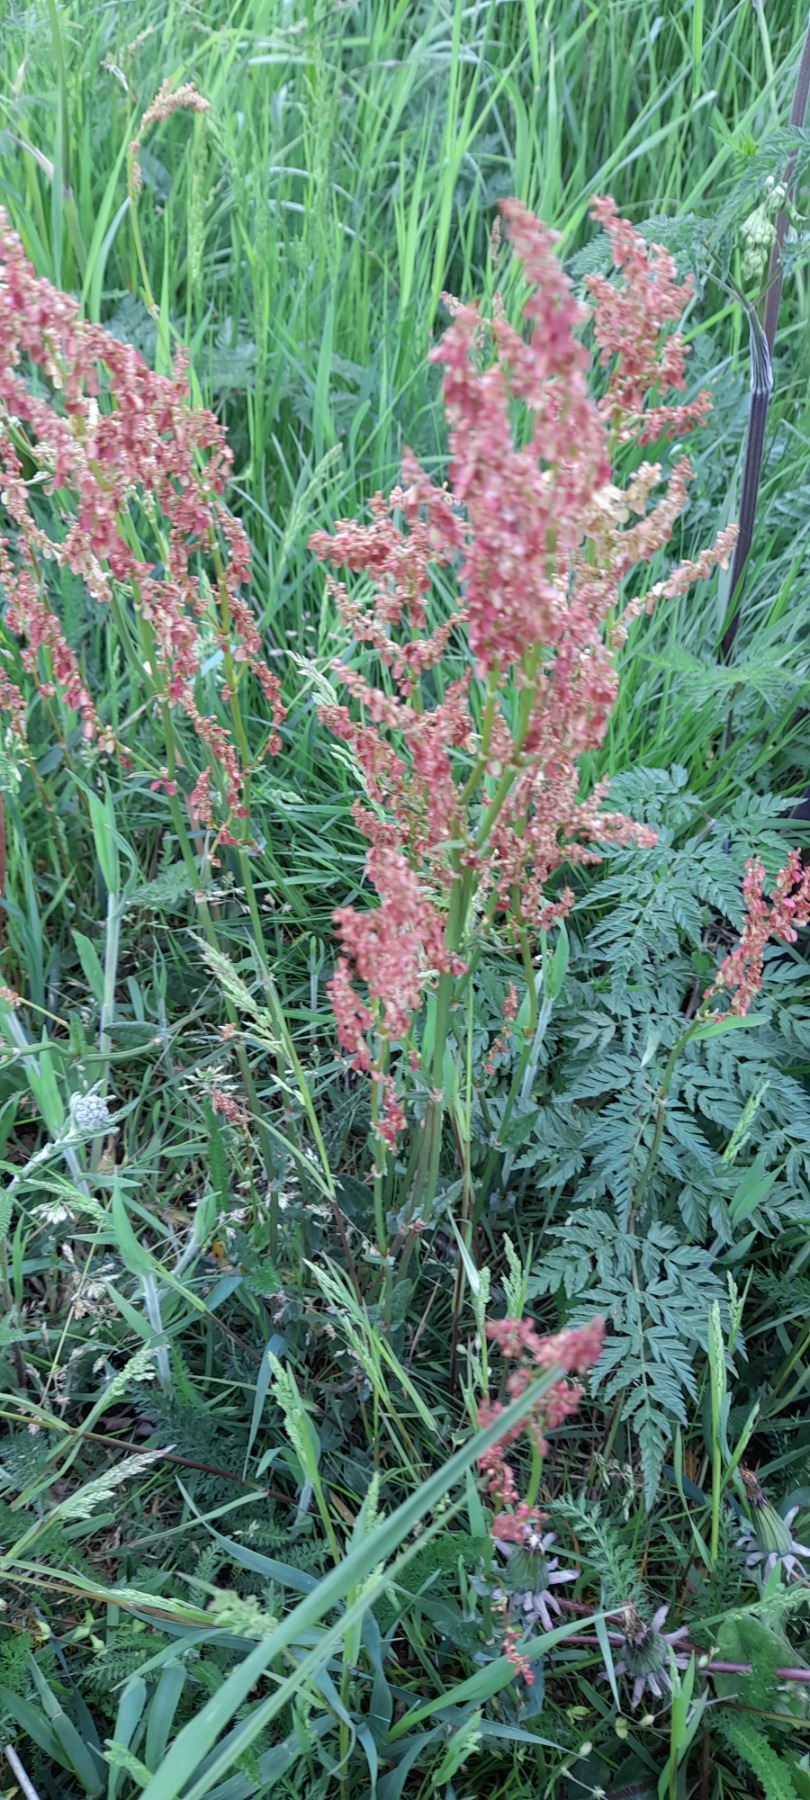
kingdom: Plantae
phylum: Tracheophyta
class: Magnoliopsida
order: Caryophyllales
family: Polygonaceae
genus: Rumex
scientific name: Rumex acetosa
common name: Almindelig syre
